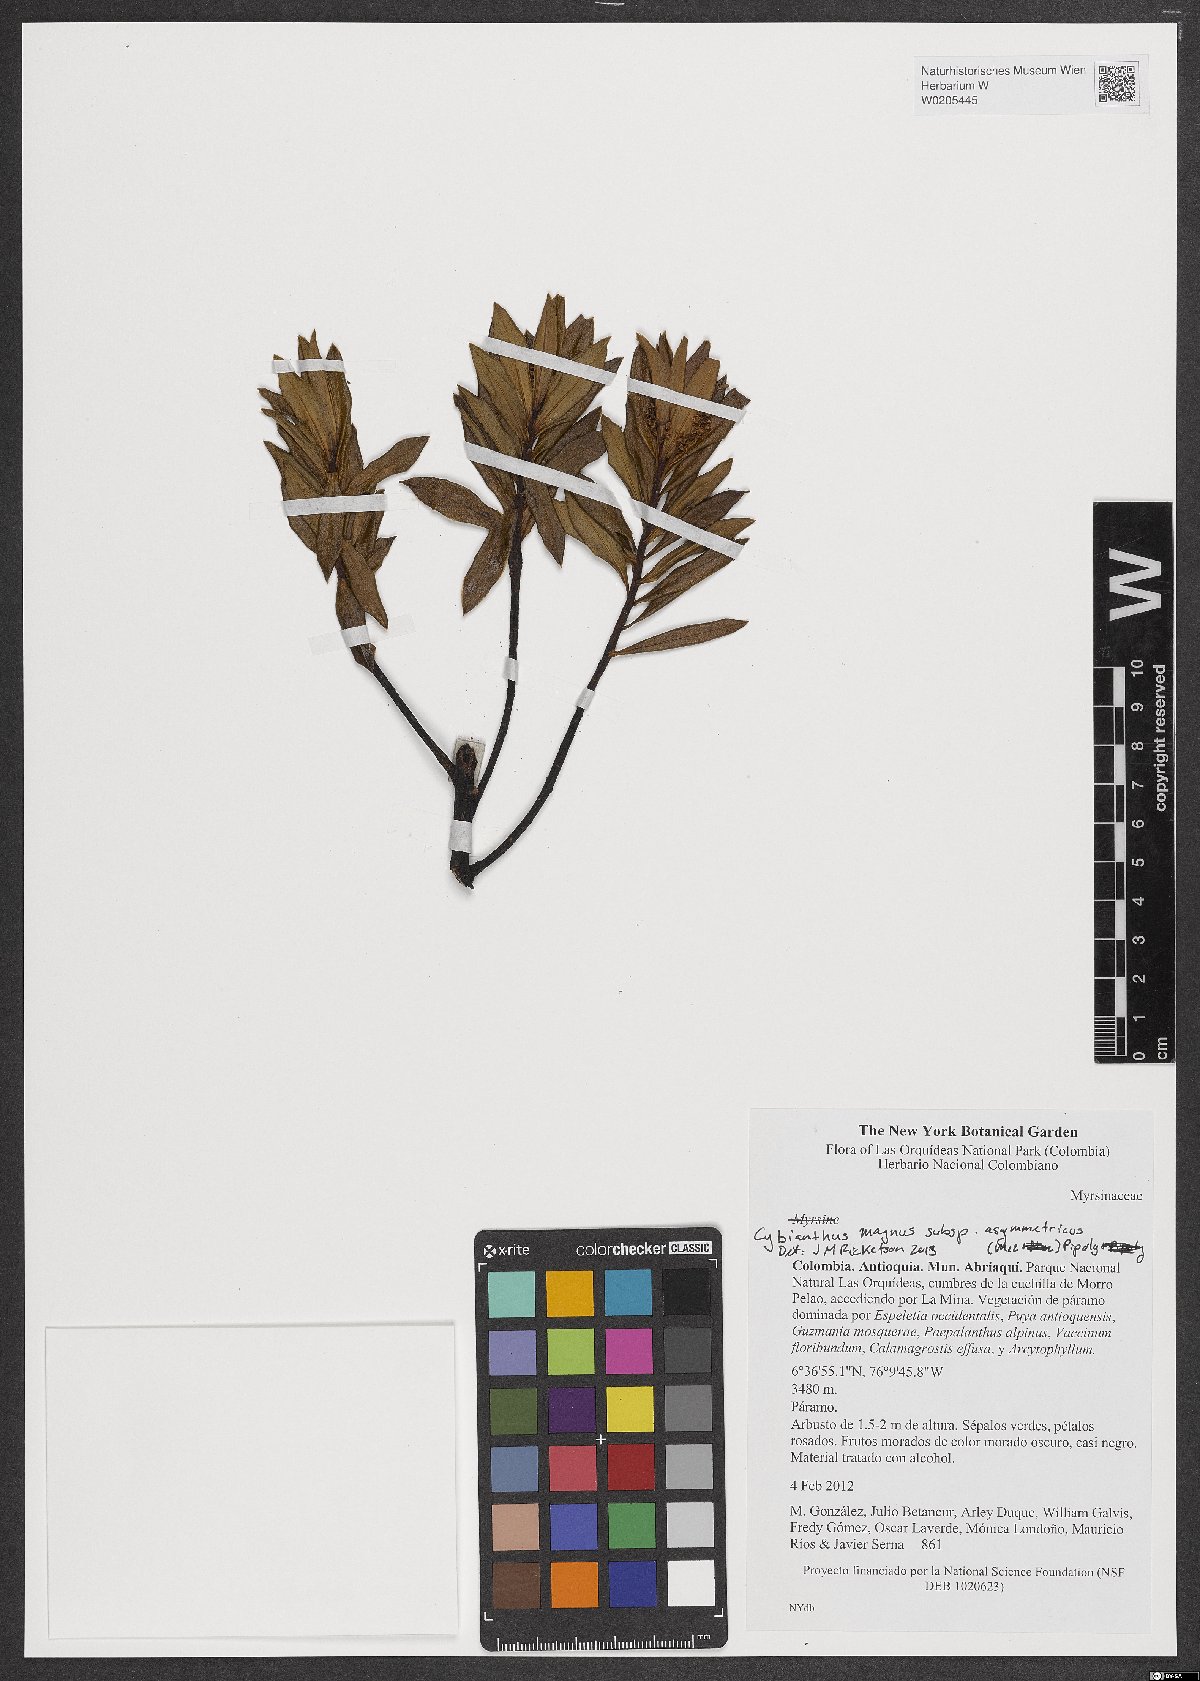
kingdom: Plantae
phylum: Tracheophyta
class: Magnoliopsida
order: Ericales
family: Primulaceae
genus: Cybianthus
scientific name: Cybianthus magnus
